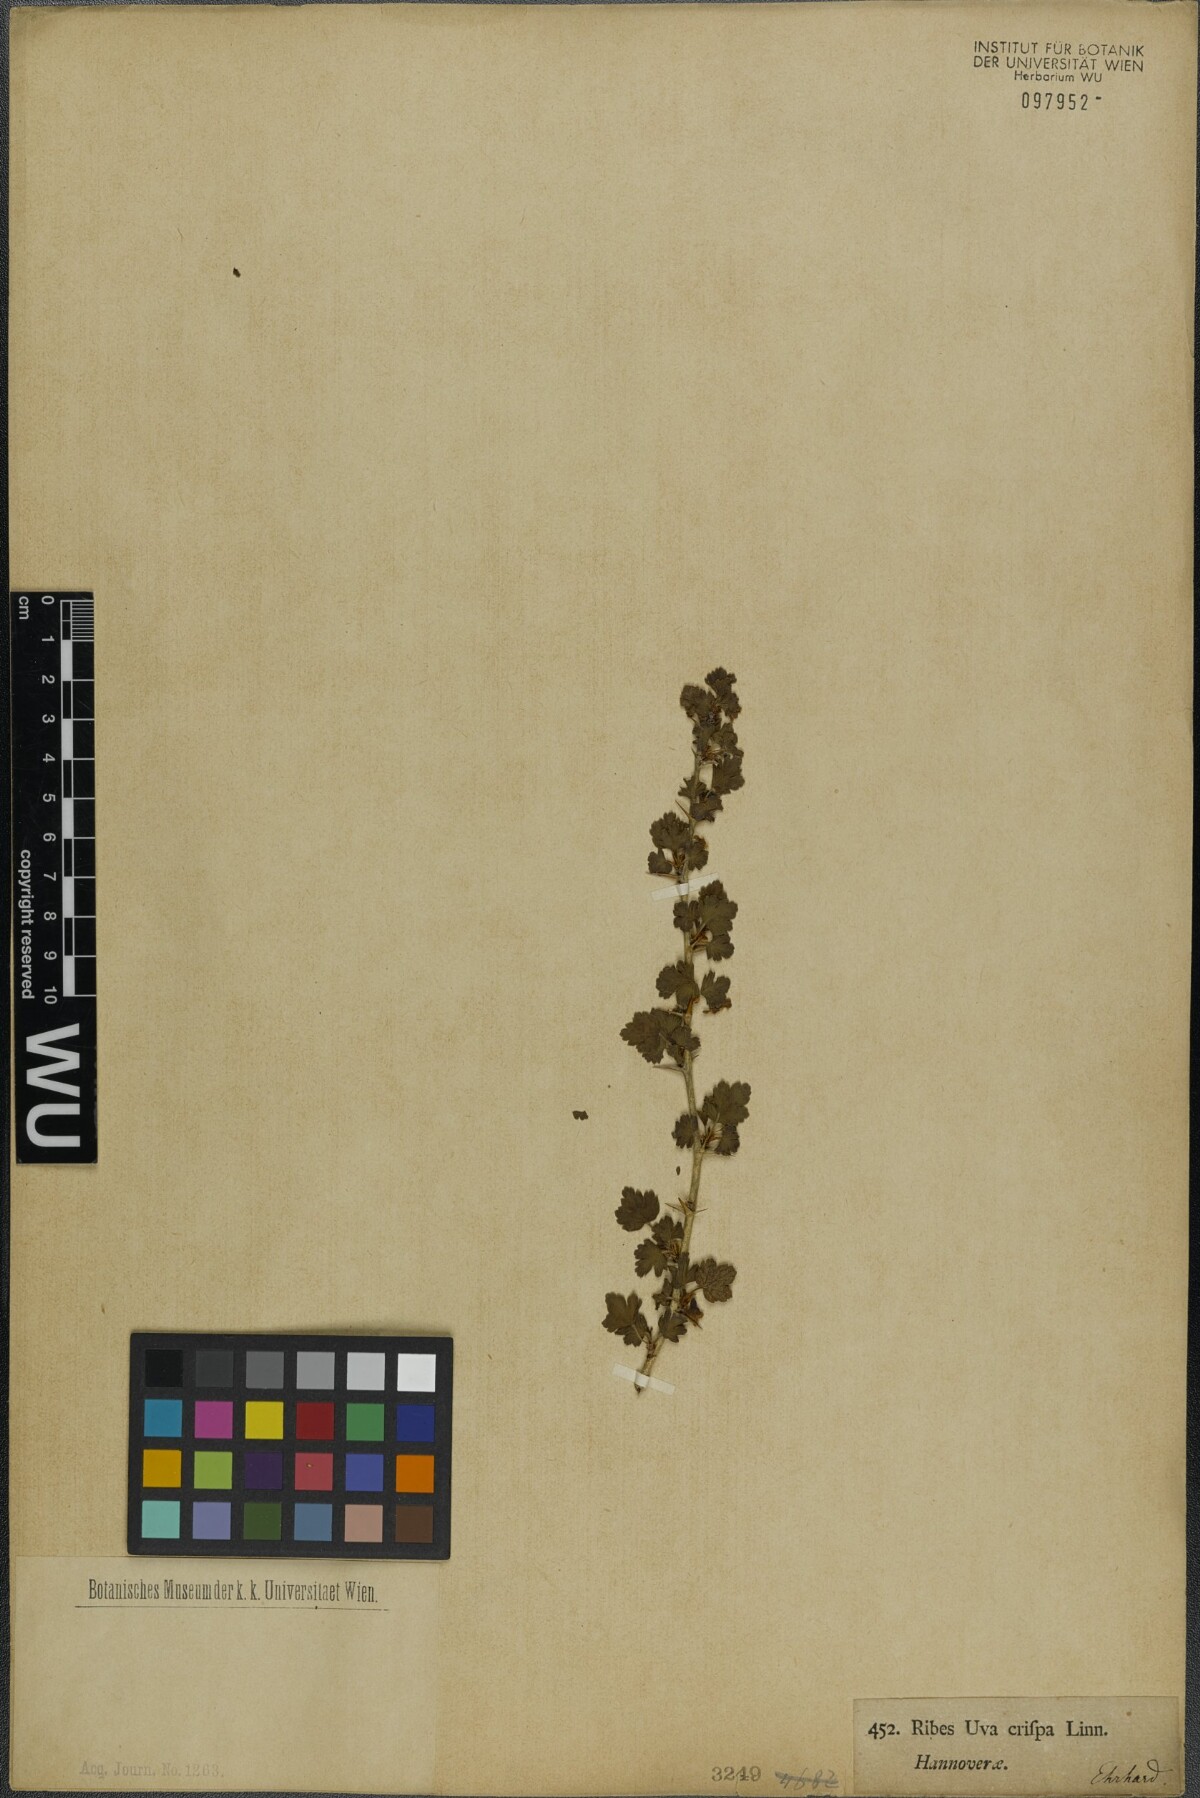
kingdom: Plantae
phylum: Tracheophyta
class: Magnoliopsida
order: Saxifragales
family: Grossulariaceae
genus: Ribes
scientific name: Ribes uva-crispa
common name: Gooseberry
